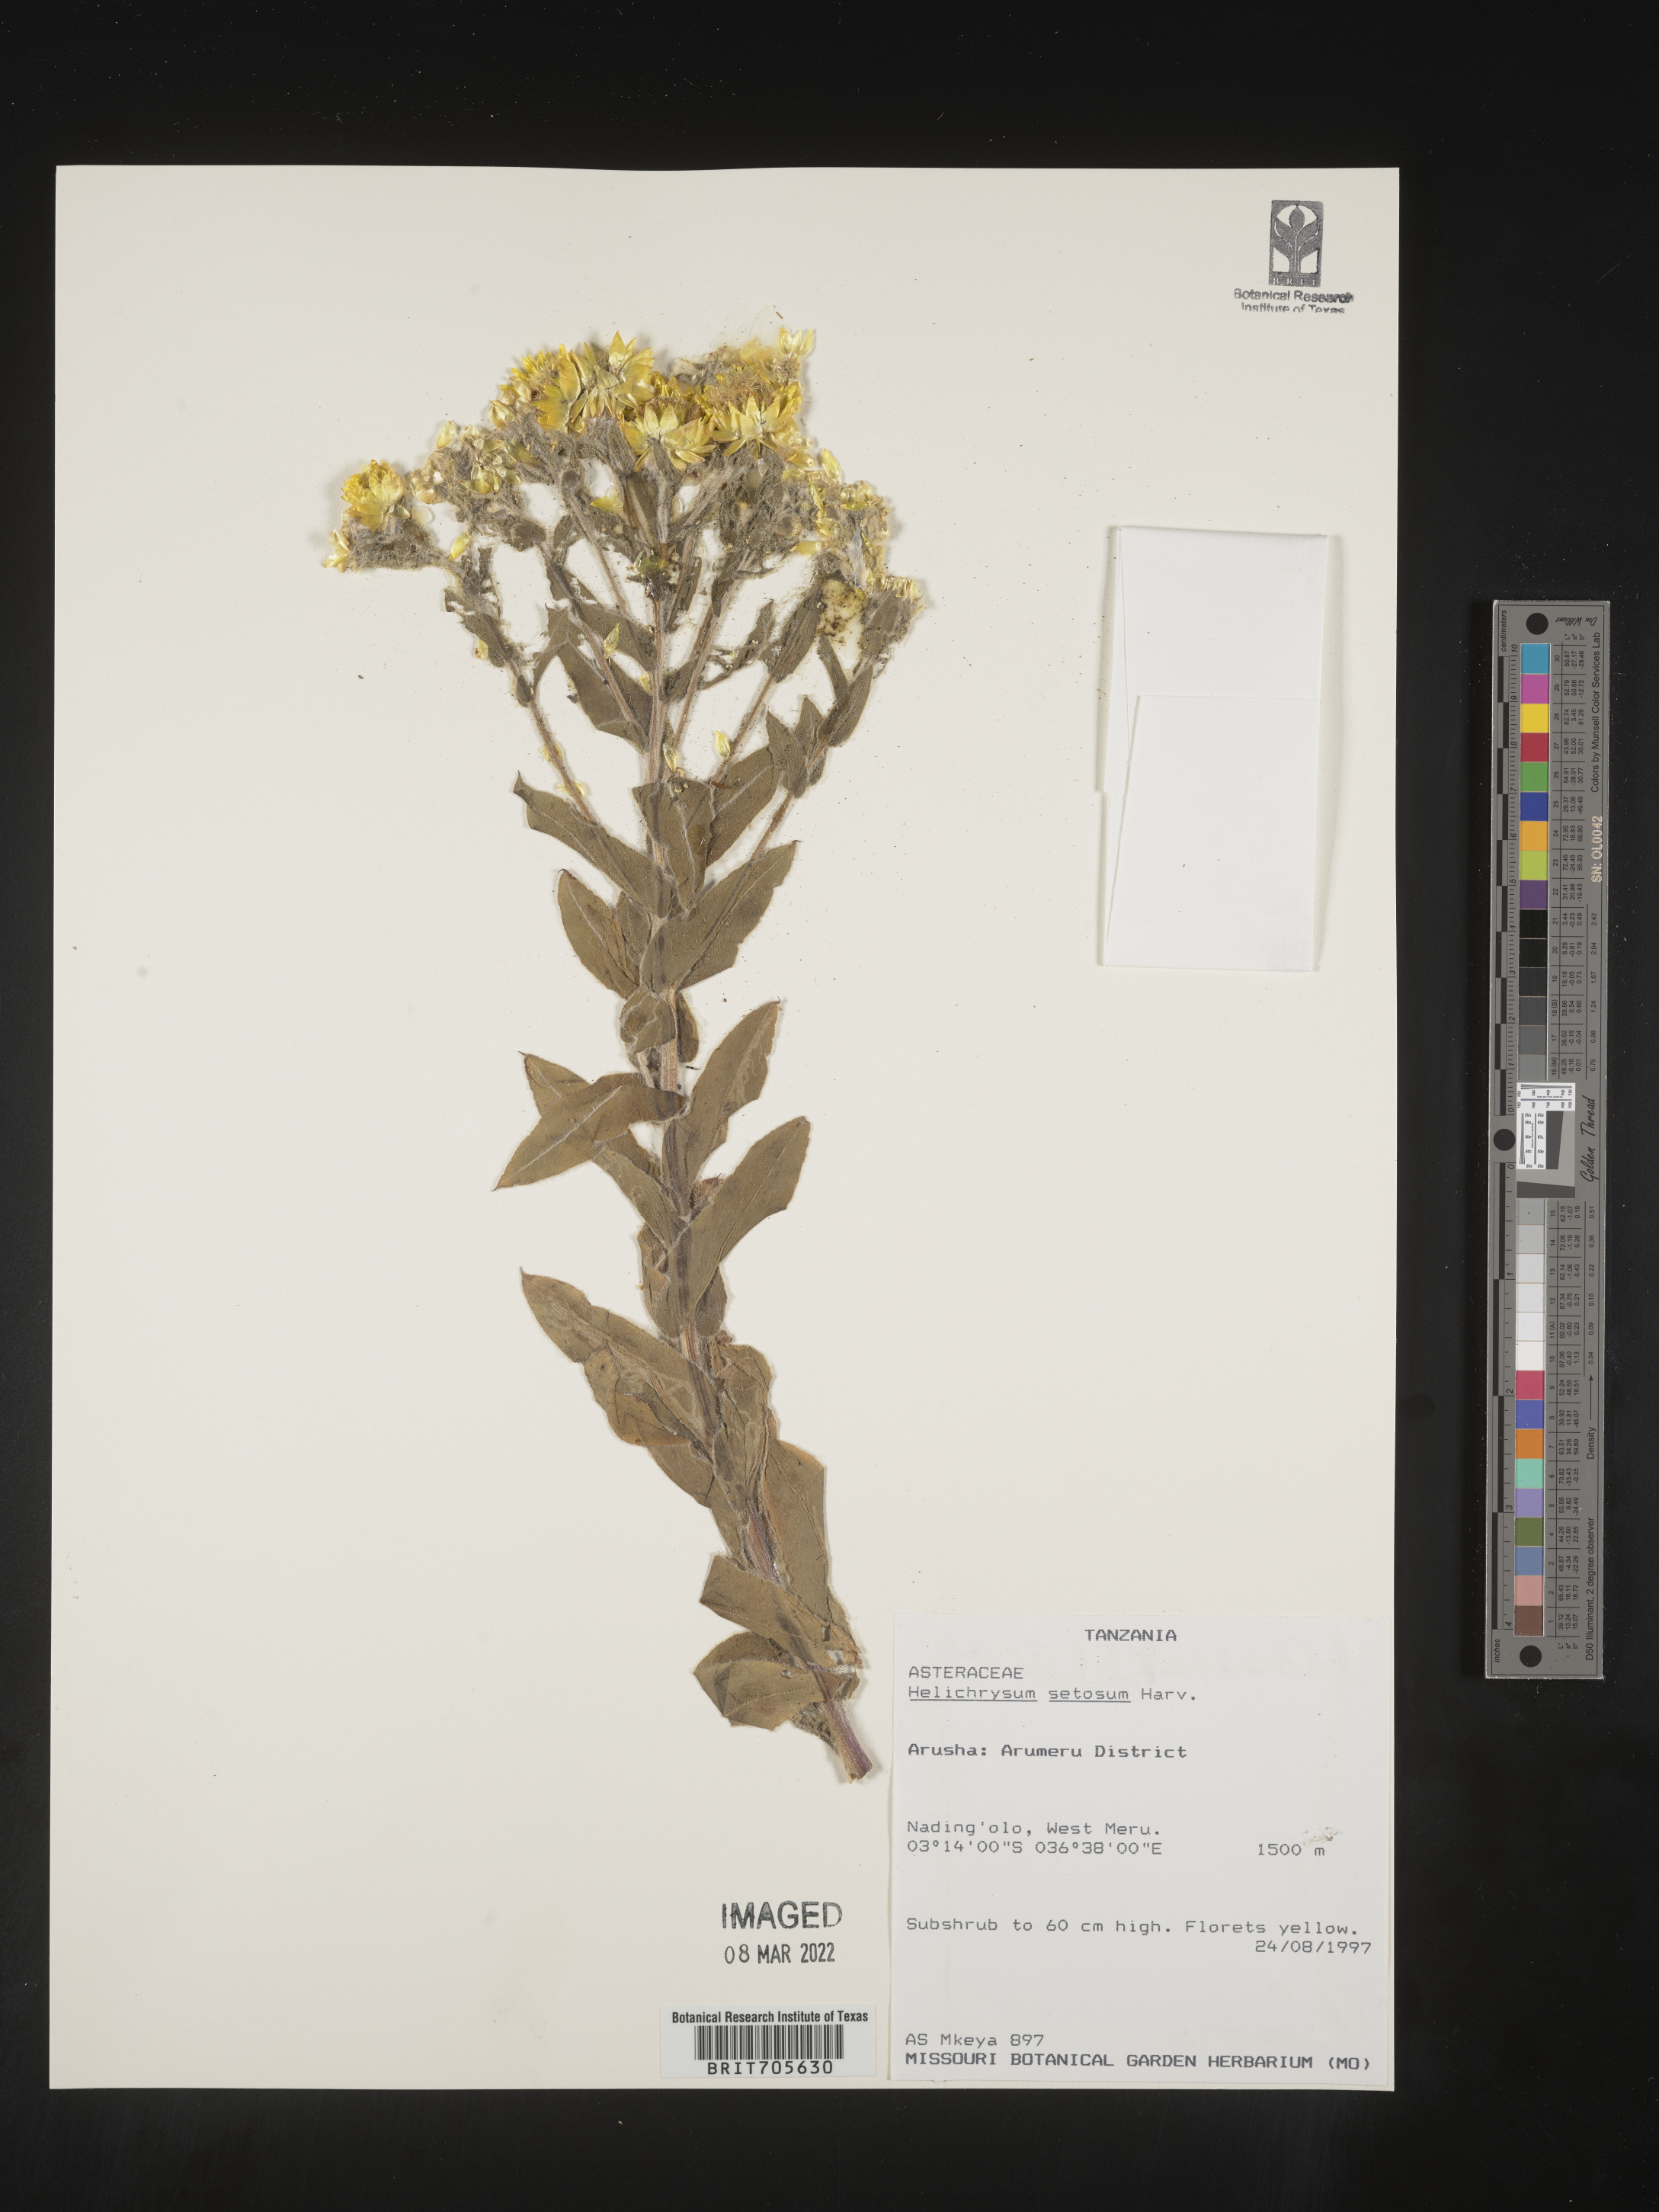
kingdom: Plantae
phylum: Tracheophyta
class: Magnoliopsida
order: Asterales
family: Asteraceae
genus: Helichrysum
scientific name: Helichrysum setosum
